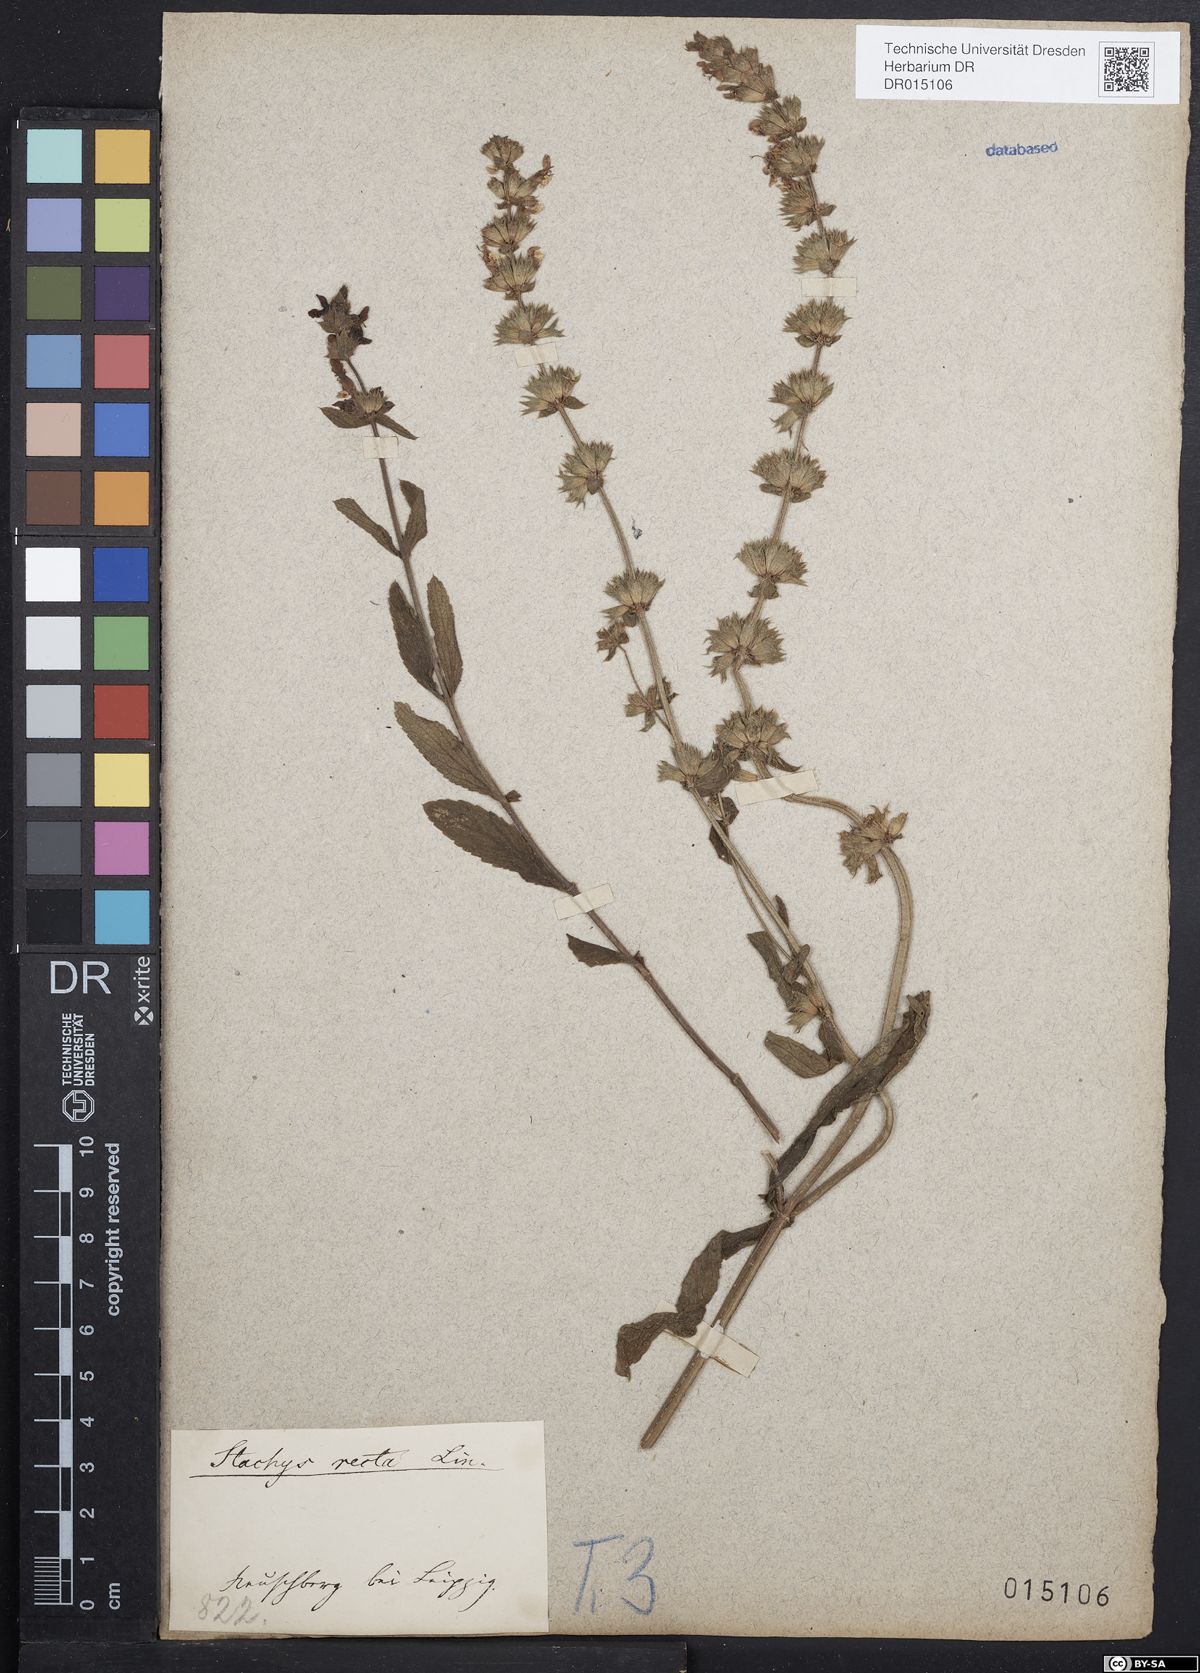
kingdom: Plantae
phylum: Tracheophyta
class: Magnoliopsida
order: Lamiales
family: Lamiaceae
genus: Stachys
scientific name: Stachys recta
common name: Perennial yellow-woundwort
